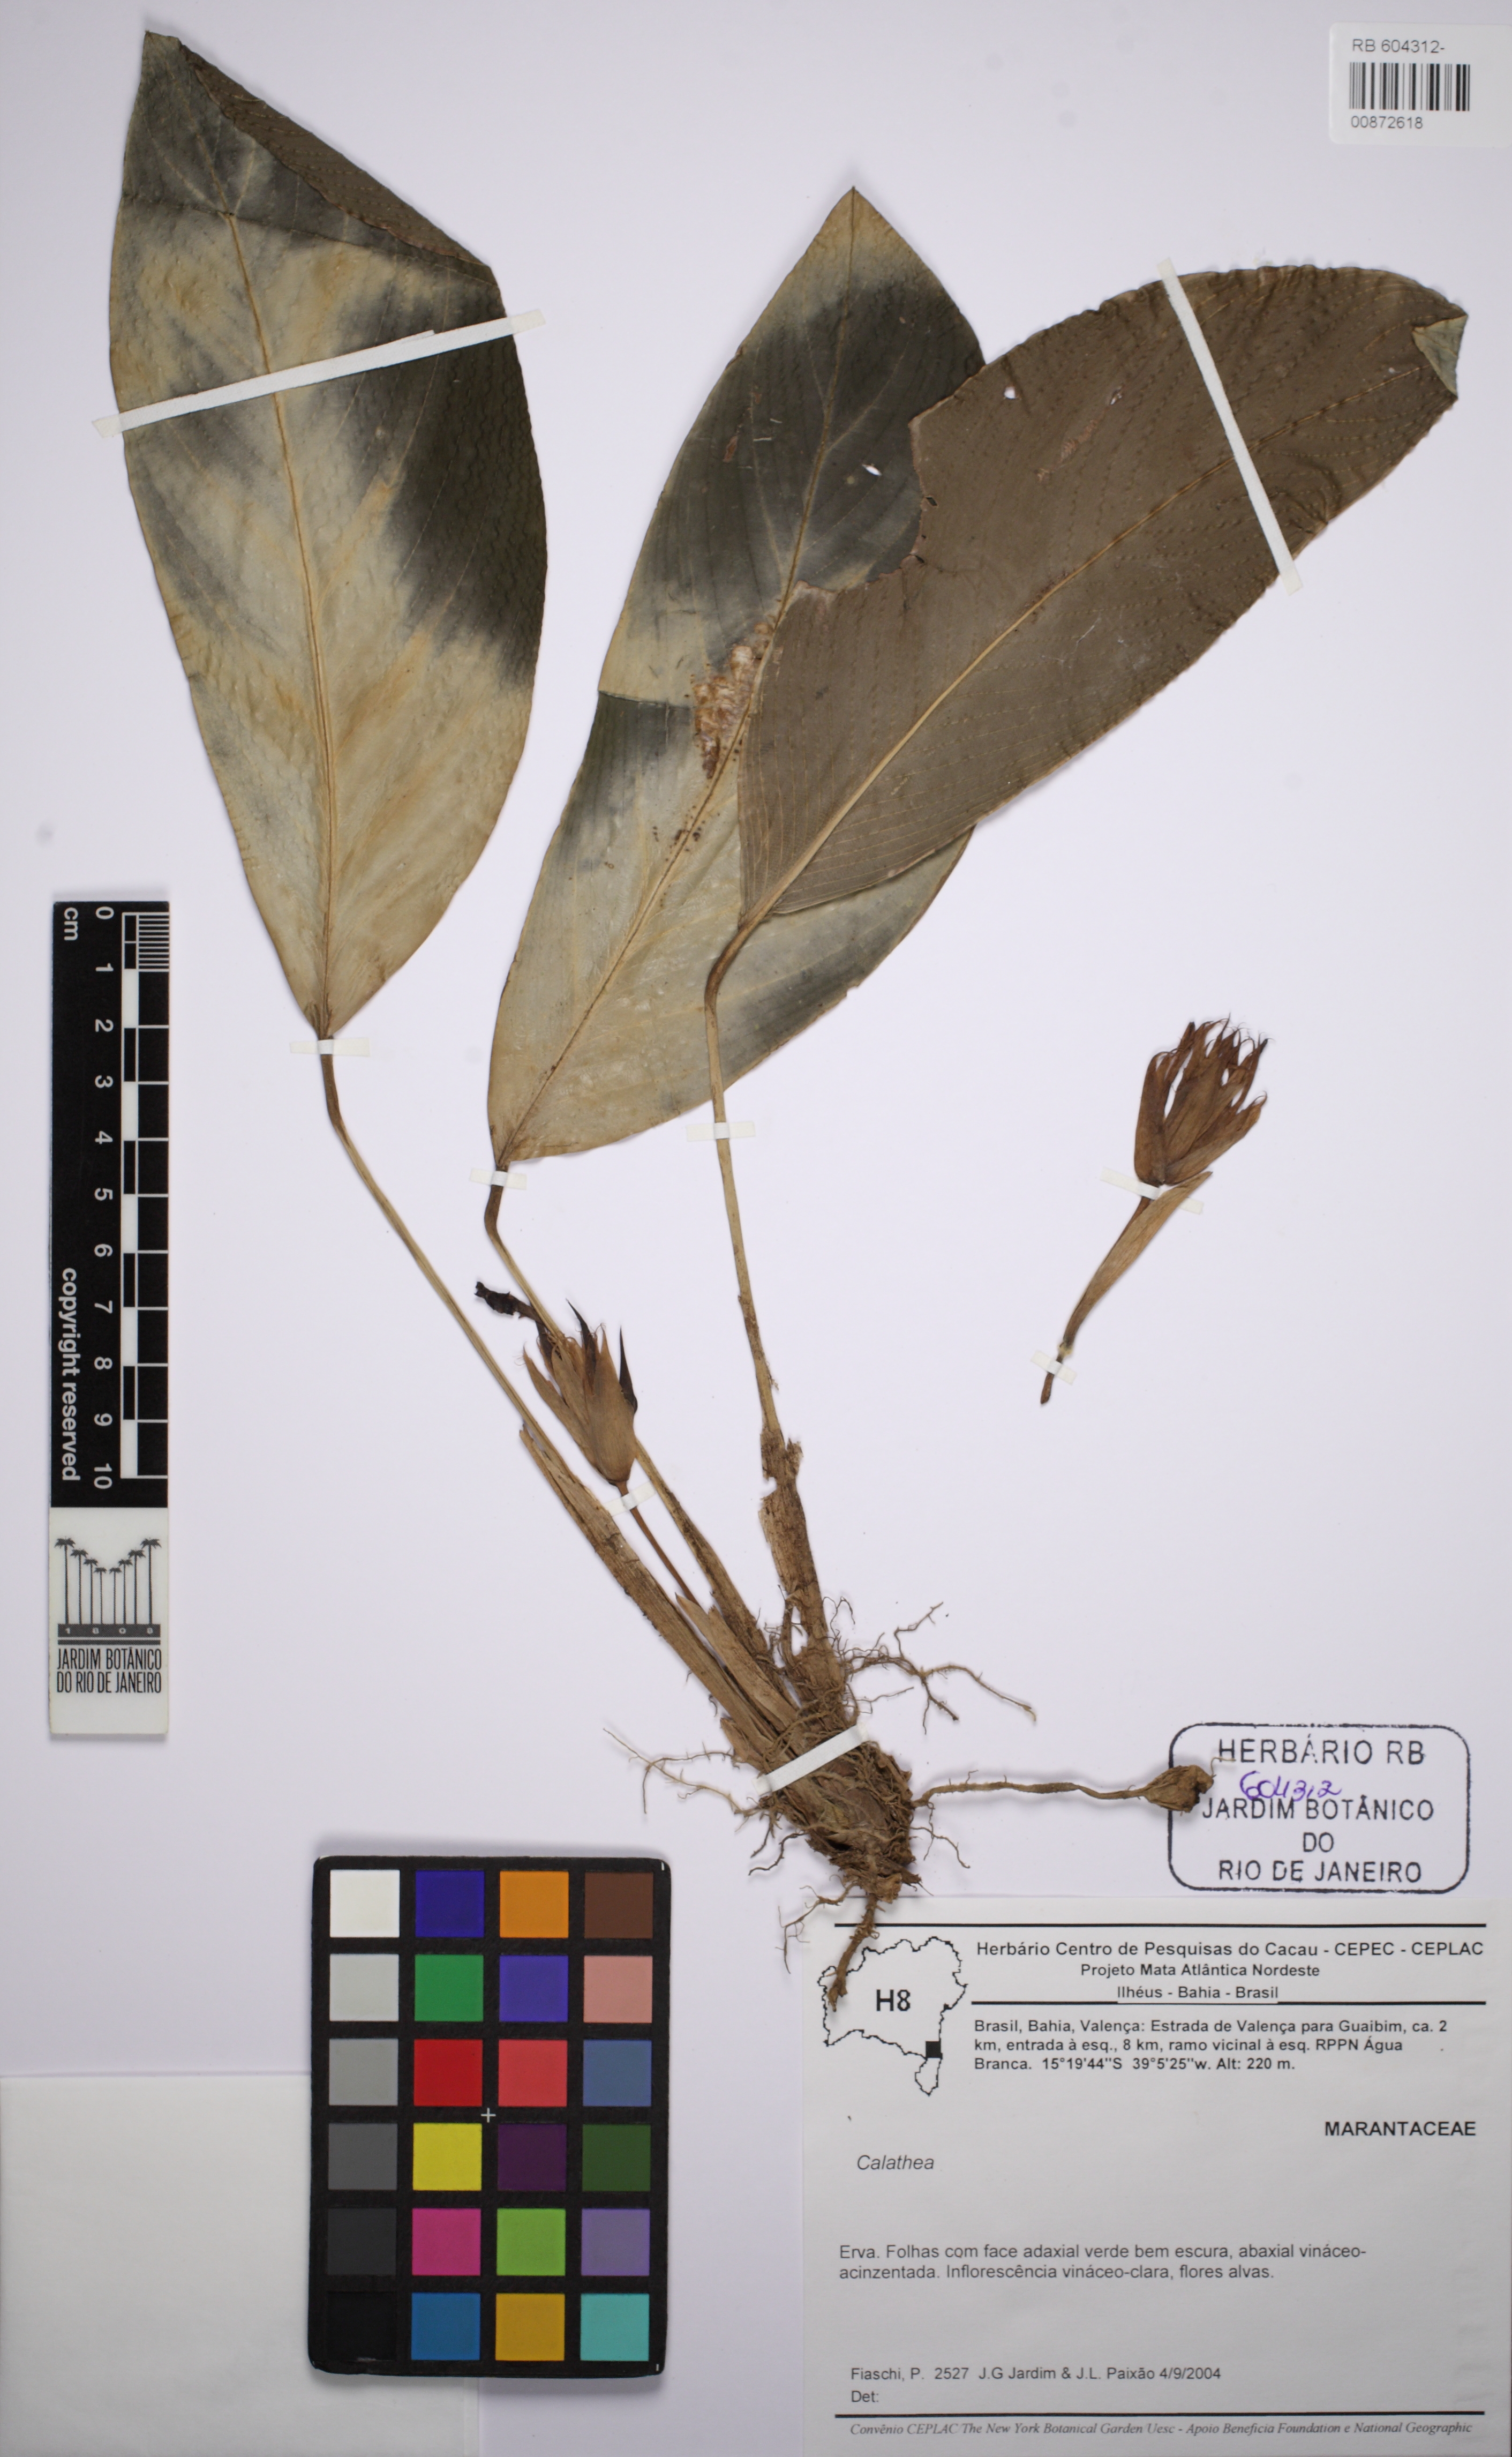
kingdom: Plantae
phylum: Tracheophyta
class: Liliopsida
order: Zingiberales
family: Marantaceae
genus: Calathea
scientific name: Calathea
